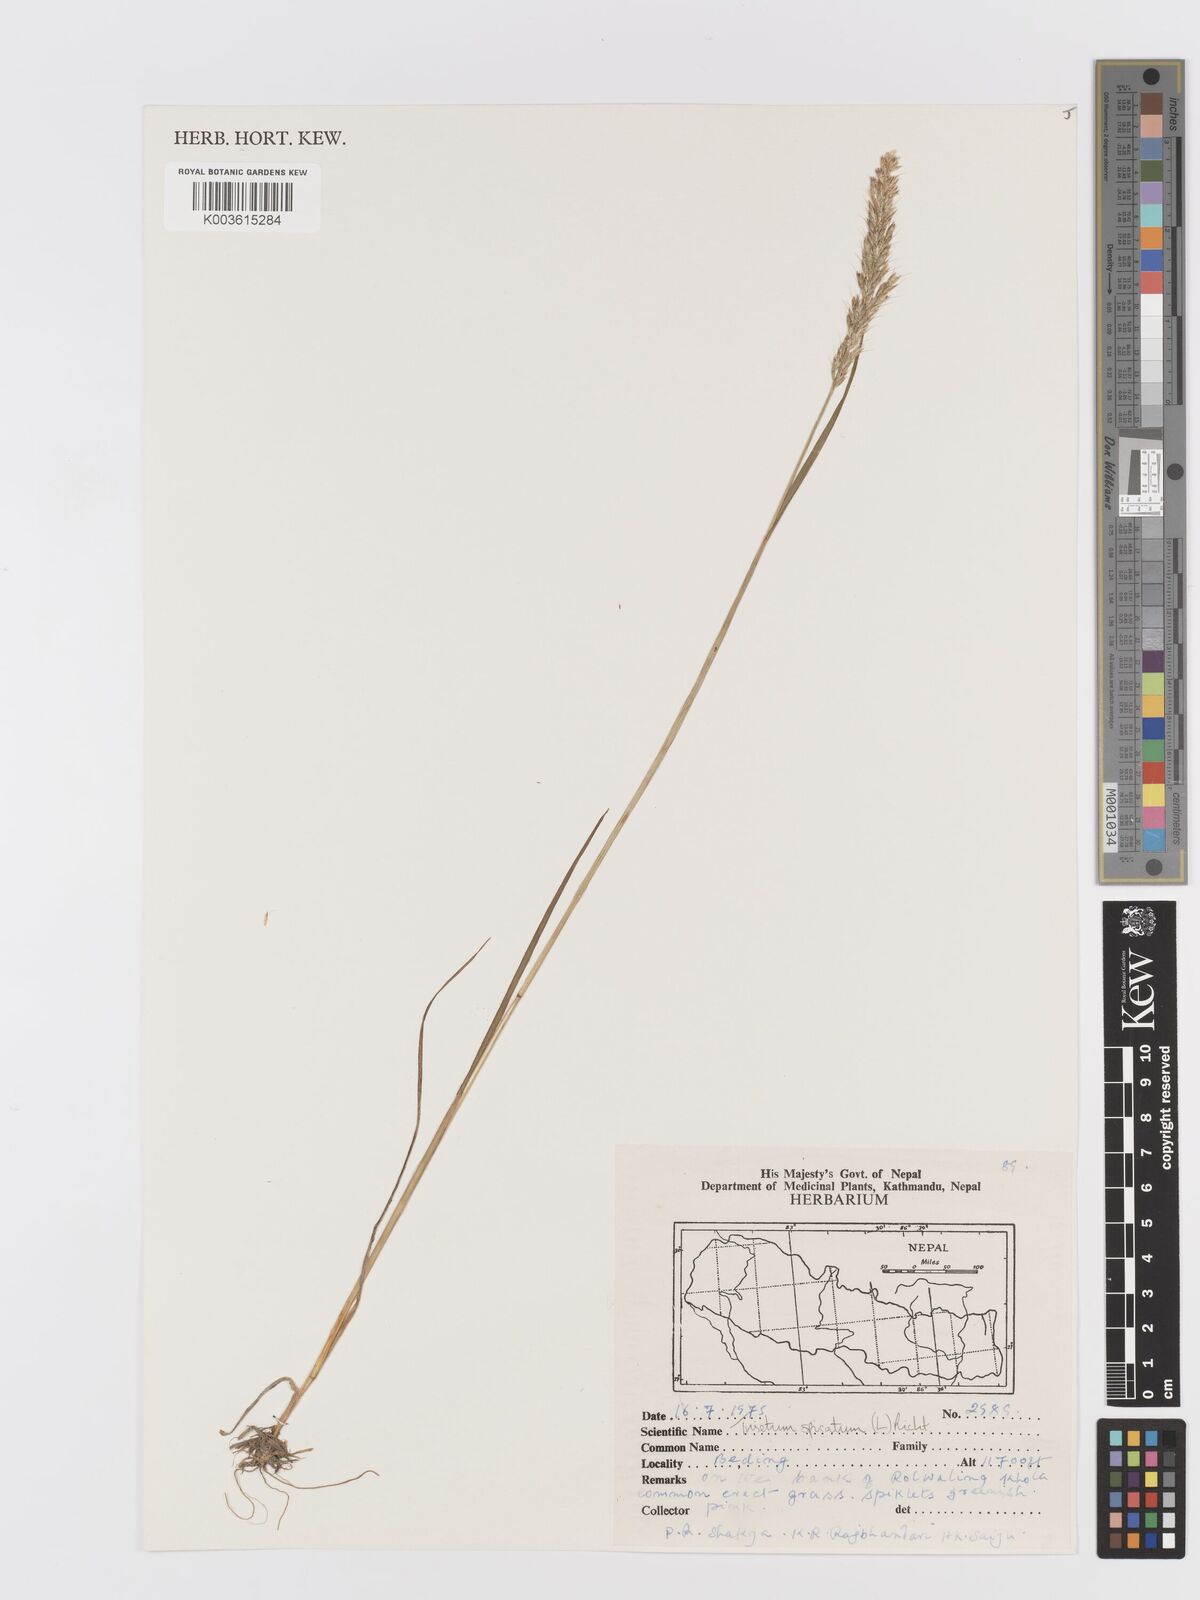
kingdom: Plantae
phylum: Tracheophyta
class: Liliopsida
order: Poales
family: Poaceae
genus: Koeleria
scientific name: Koeleria spicata
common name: Mountain trisetum
